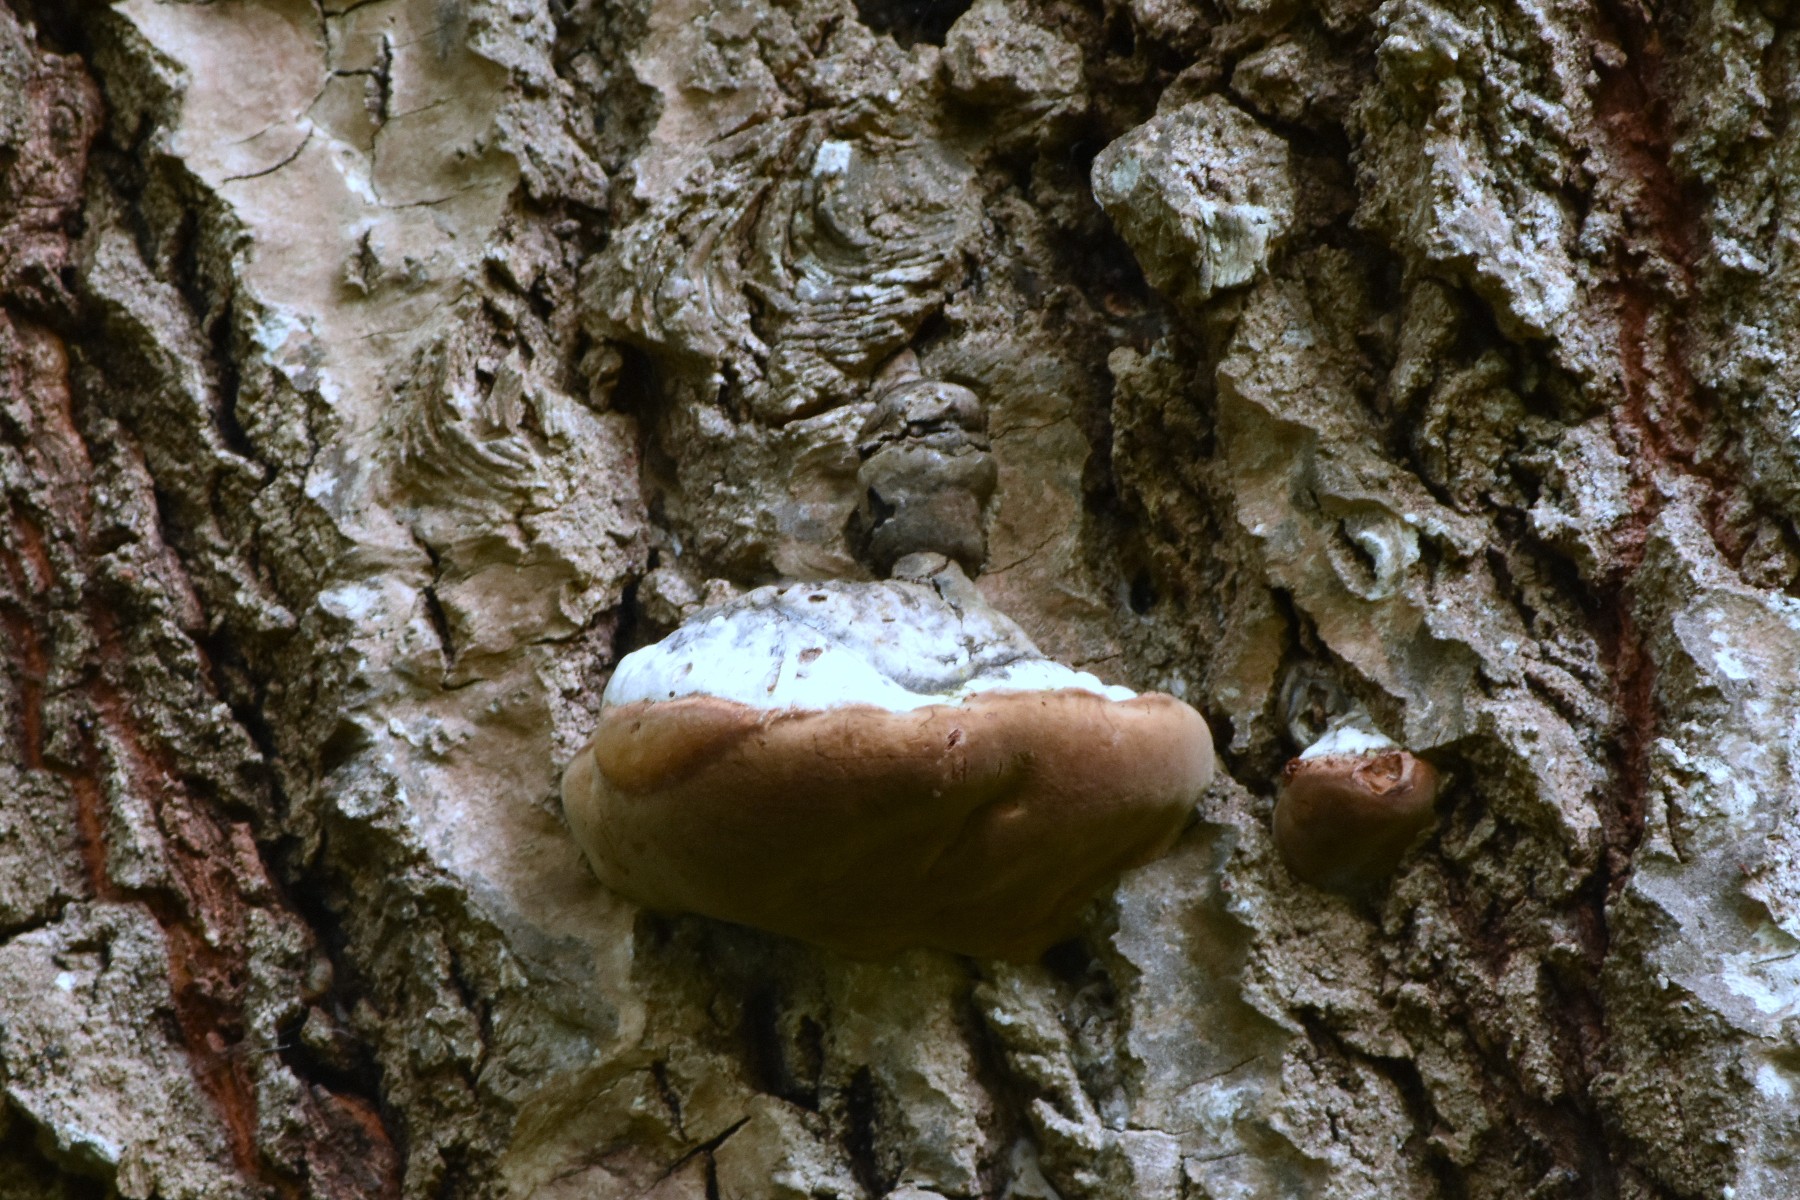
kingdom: Fungi
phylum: Basidiomycota
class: Agaricomycetes
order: Hymenochaetales
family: Hymenochaetaceae
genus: Phellinus
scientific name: Phellinus populicola
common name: poppel-ildporesvamp
